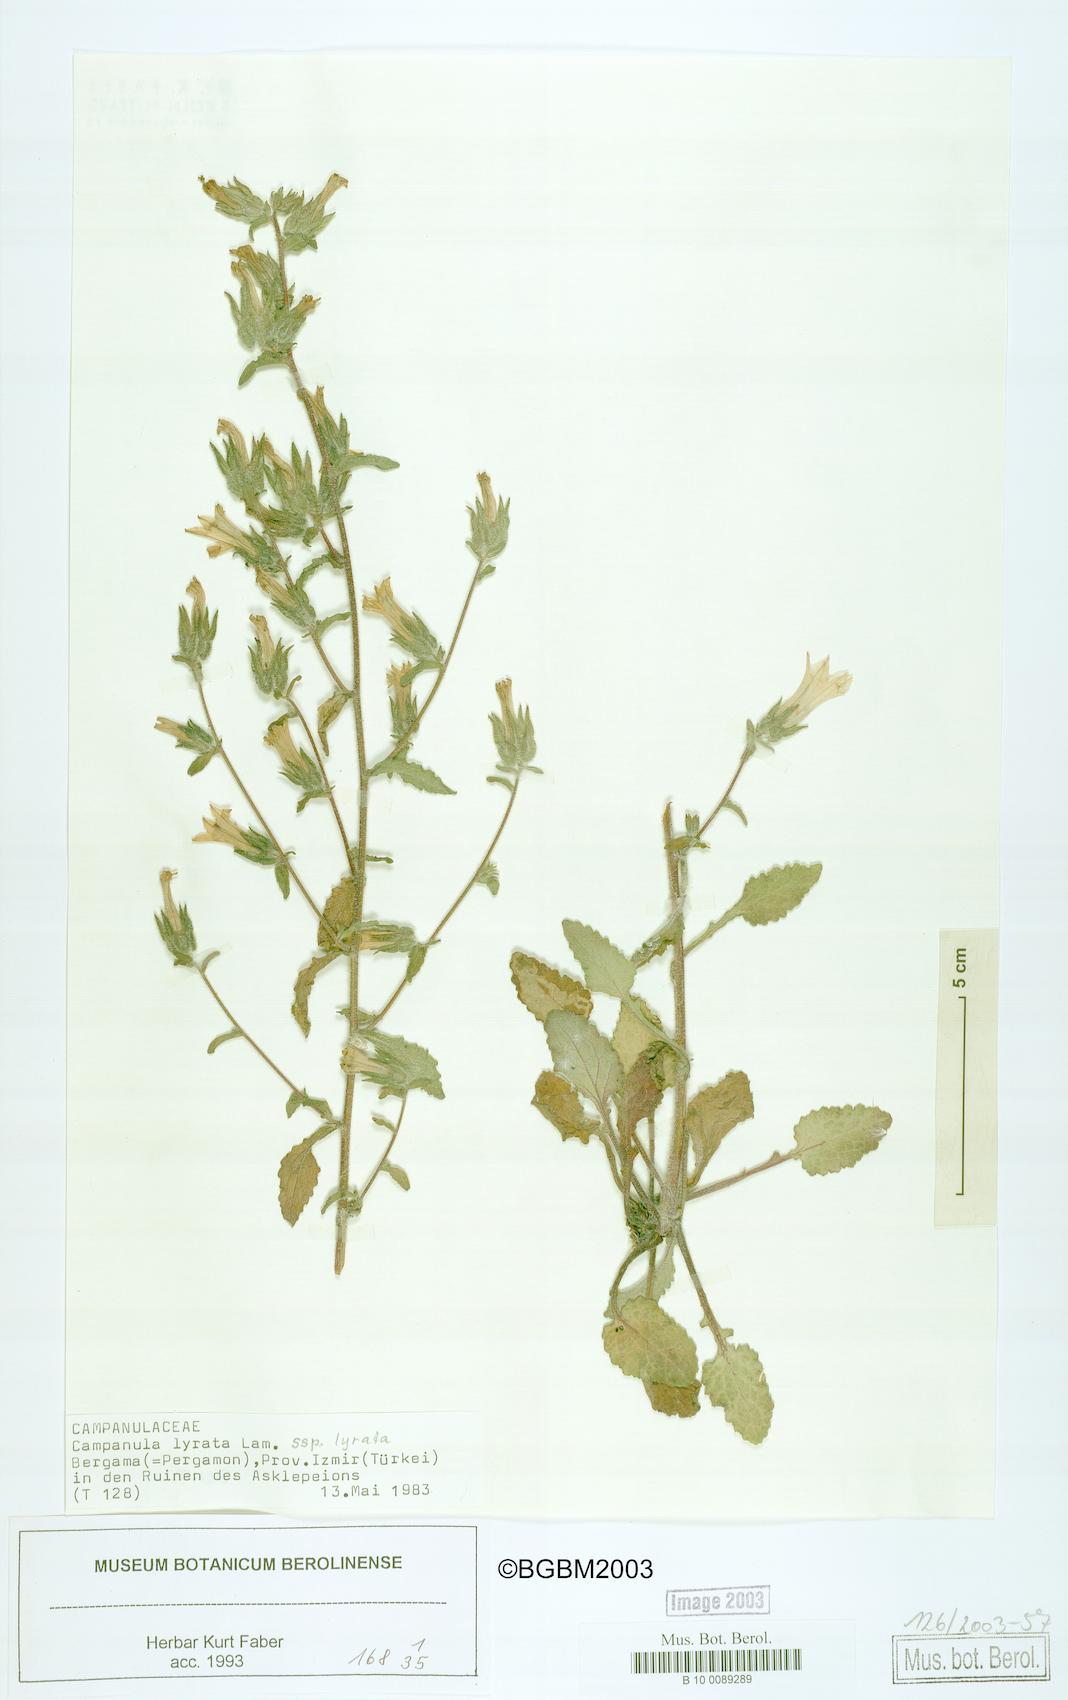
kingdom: Plantae
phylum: Tracheophyta
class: Magnoliopsida
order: Asterales
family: Campanulaceae
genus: Campanula
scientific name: Campanula lyrata
